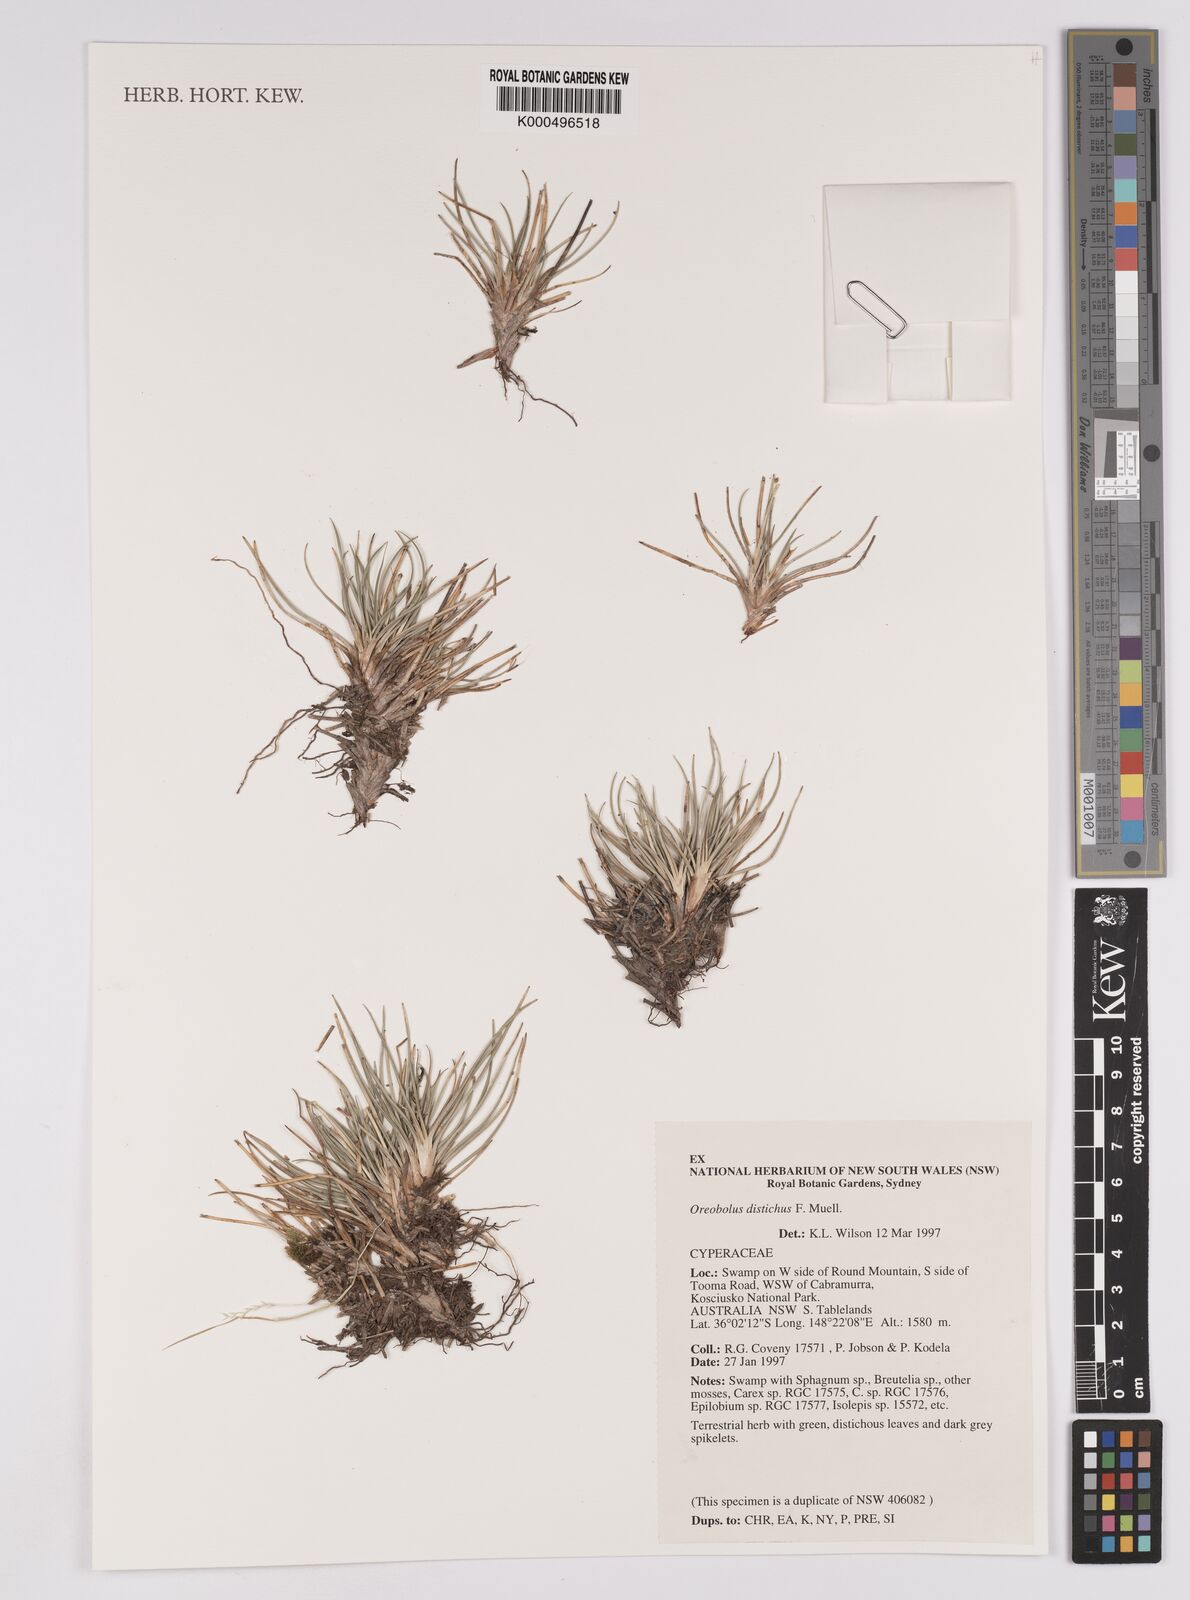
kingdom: Plantae
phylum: Tracheophyta
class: Liliopsida
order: Poales
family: Cyperaceae
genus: Oreobolus
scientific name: Oreobolus
